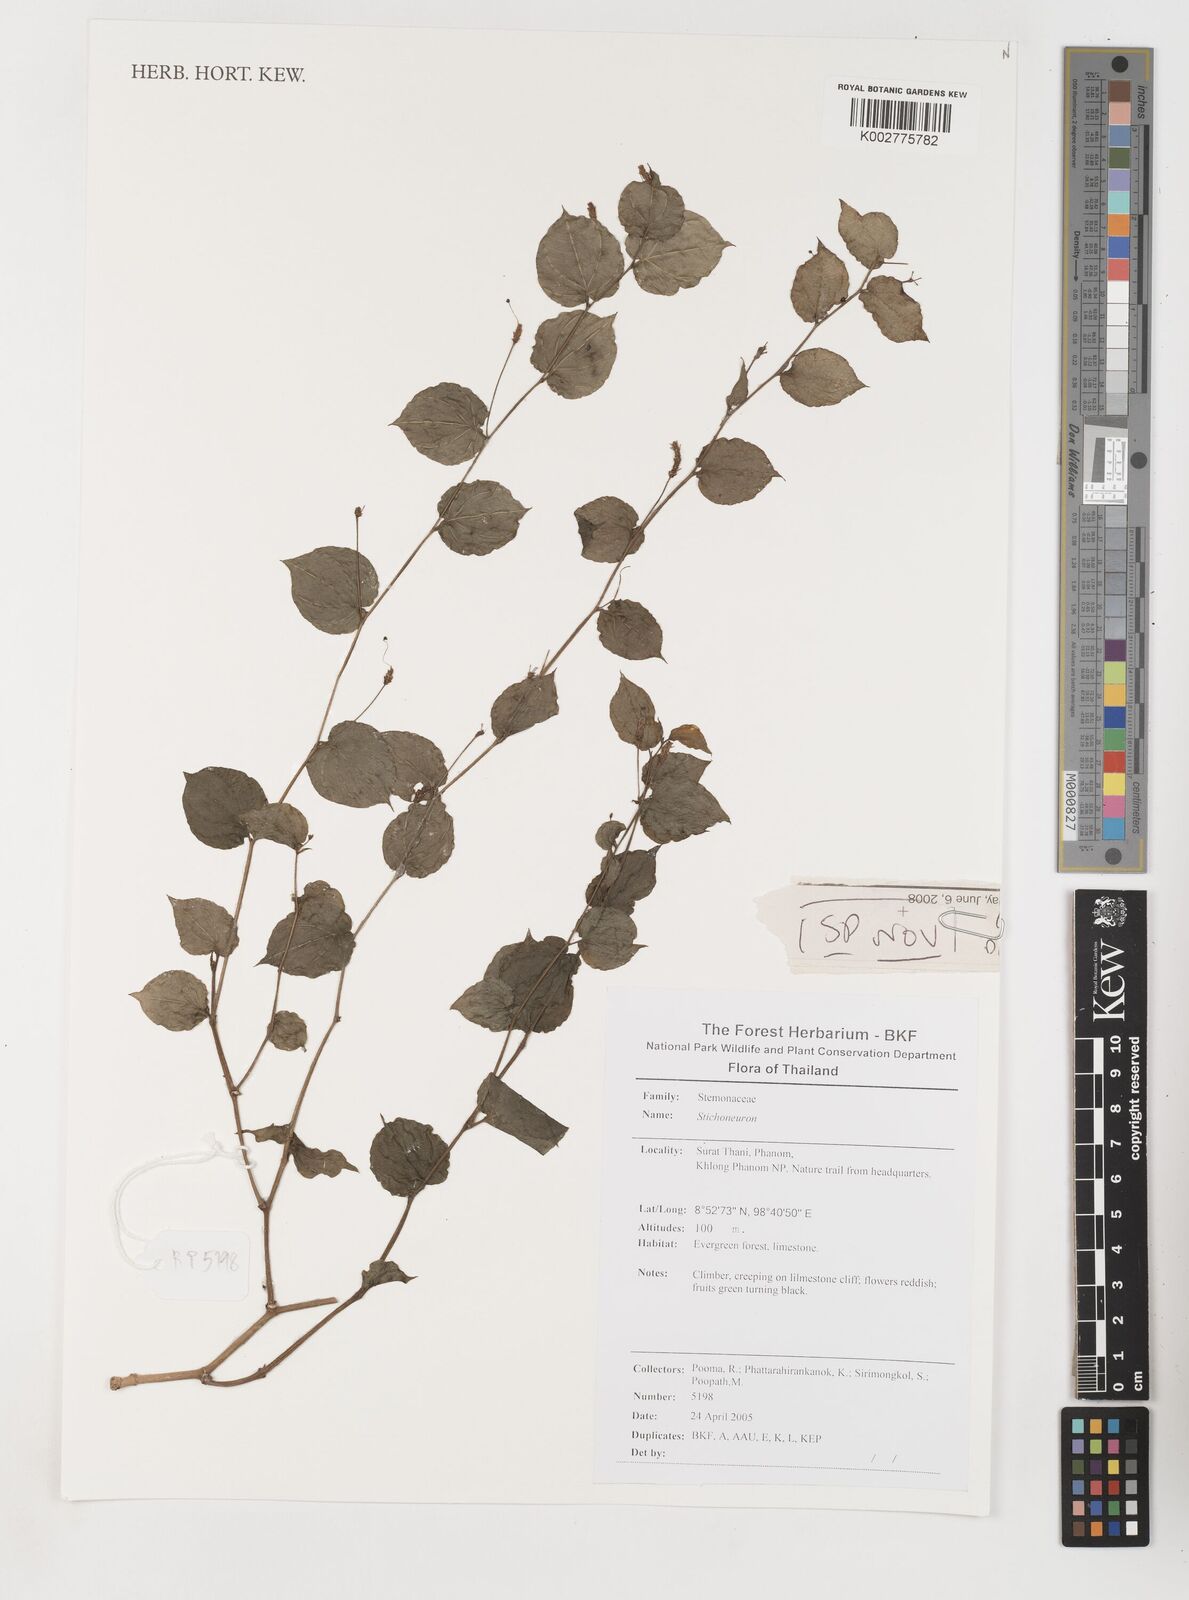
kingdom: Plantae
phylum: Tracheophyta
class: Liliopsida
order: Pandanales
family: Stemonaceae
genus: Stichoneuron
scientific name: Stichoneuron calcicola
